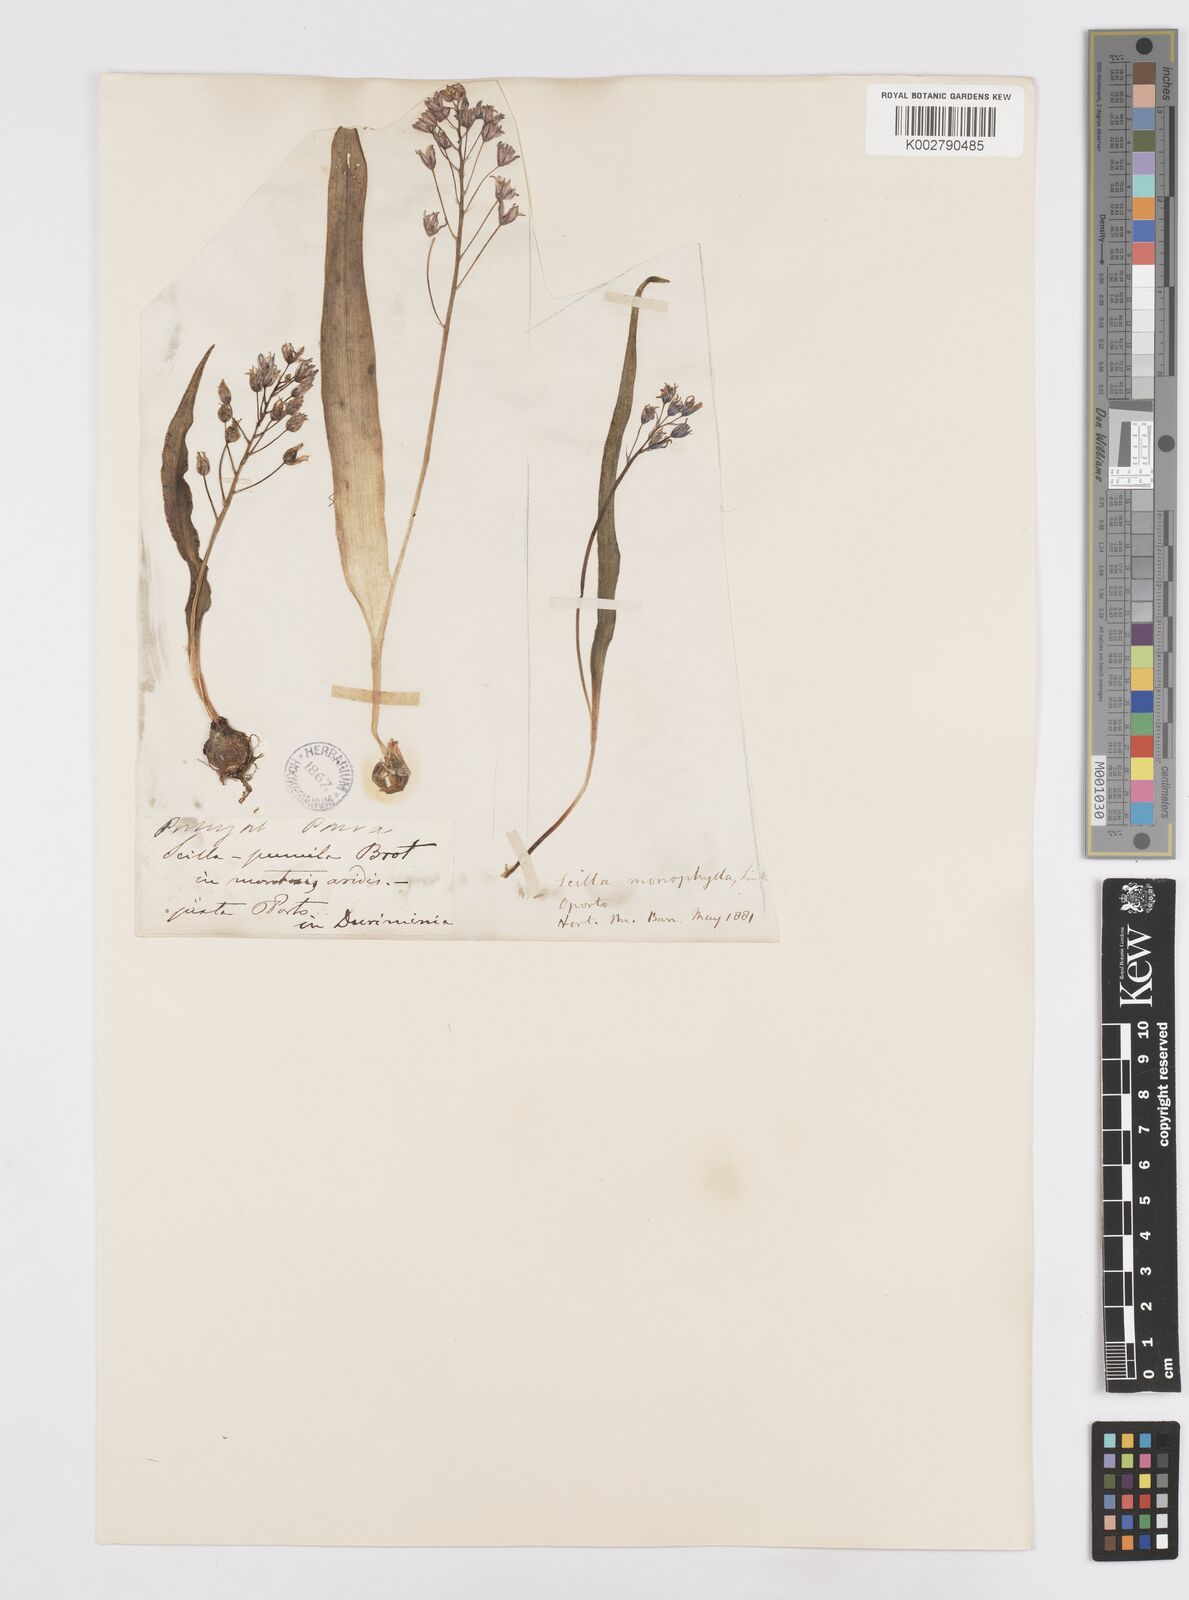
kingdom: Plantae
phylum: Tracheophyta
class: Liliopsida
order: Asparagales
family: Asparagaceae
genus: Scilla
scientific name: Scilla monophyllos
